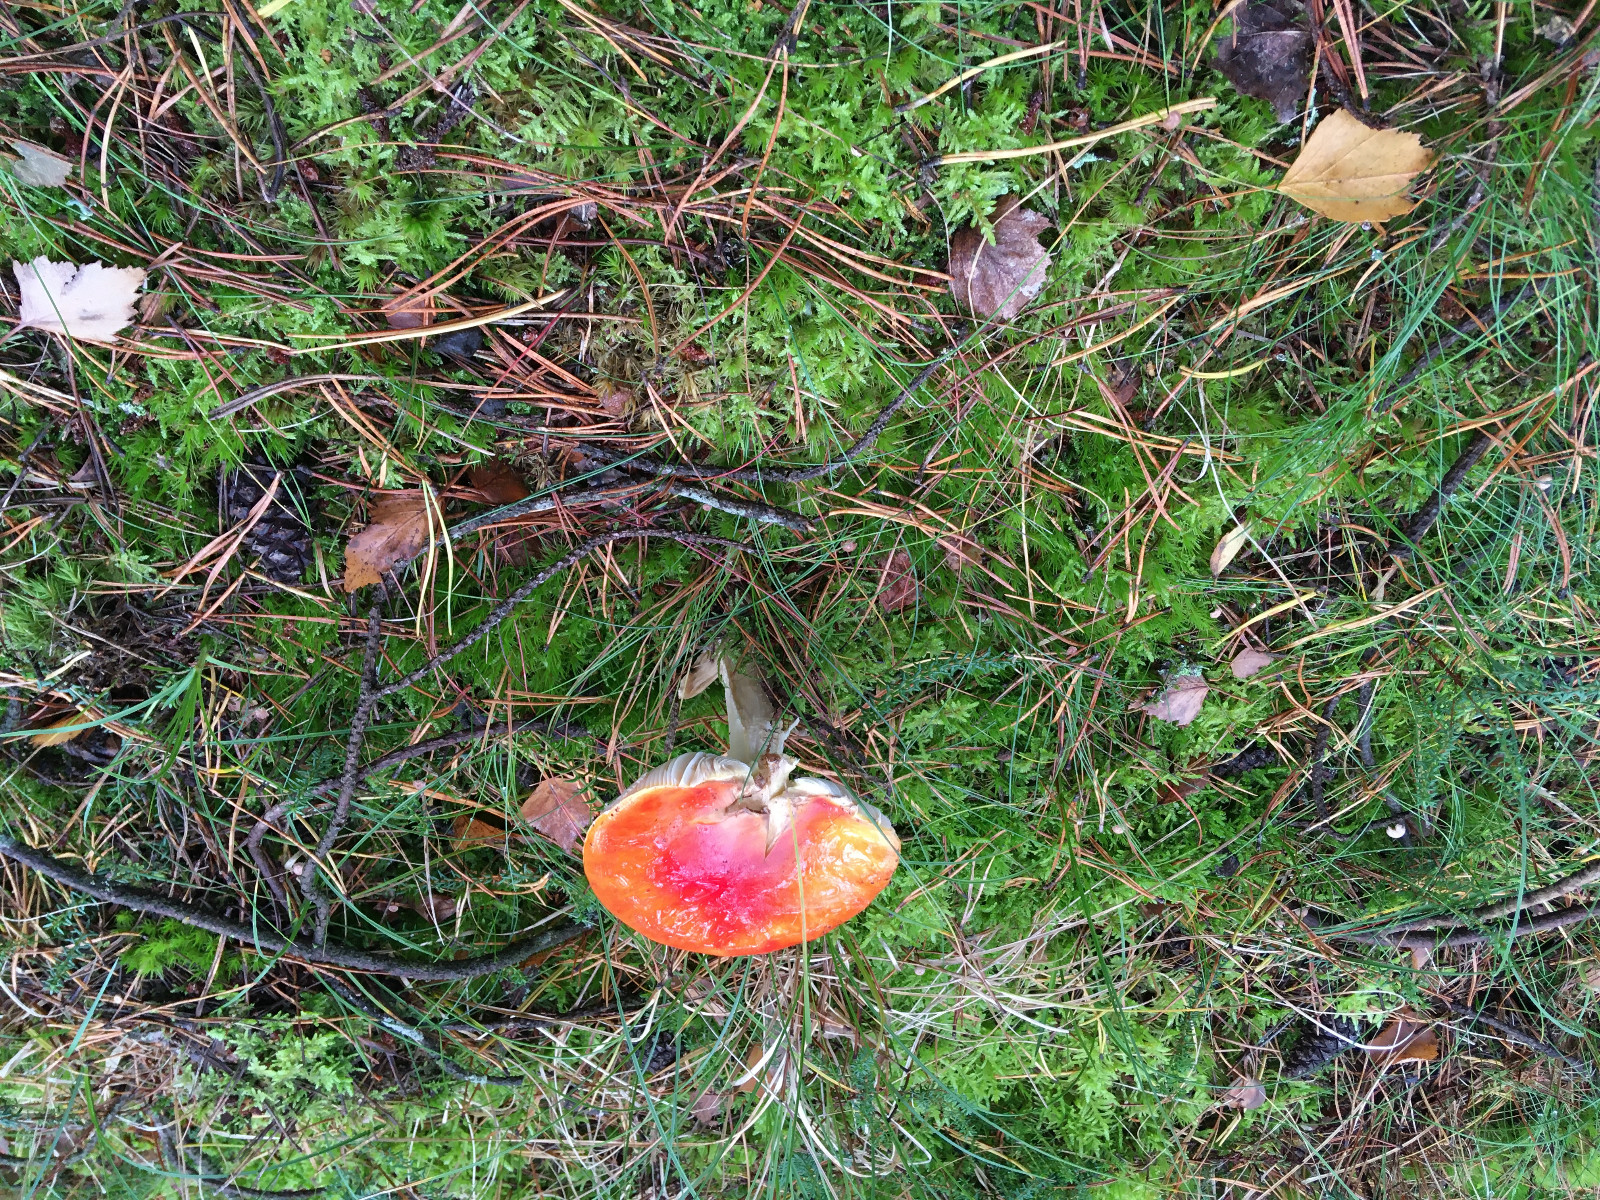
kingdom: Fungi
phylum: Basidiomycota
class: Agaricomycetes
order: Agaricales
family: Amanitaceae
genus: Amanita
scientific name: Amanita muscaria
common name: rød fluesvamp
